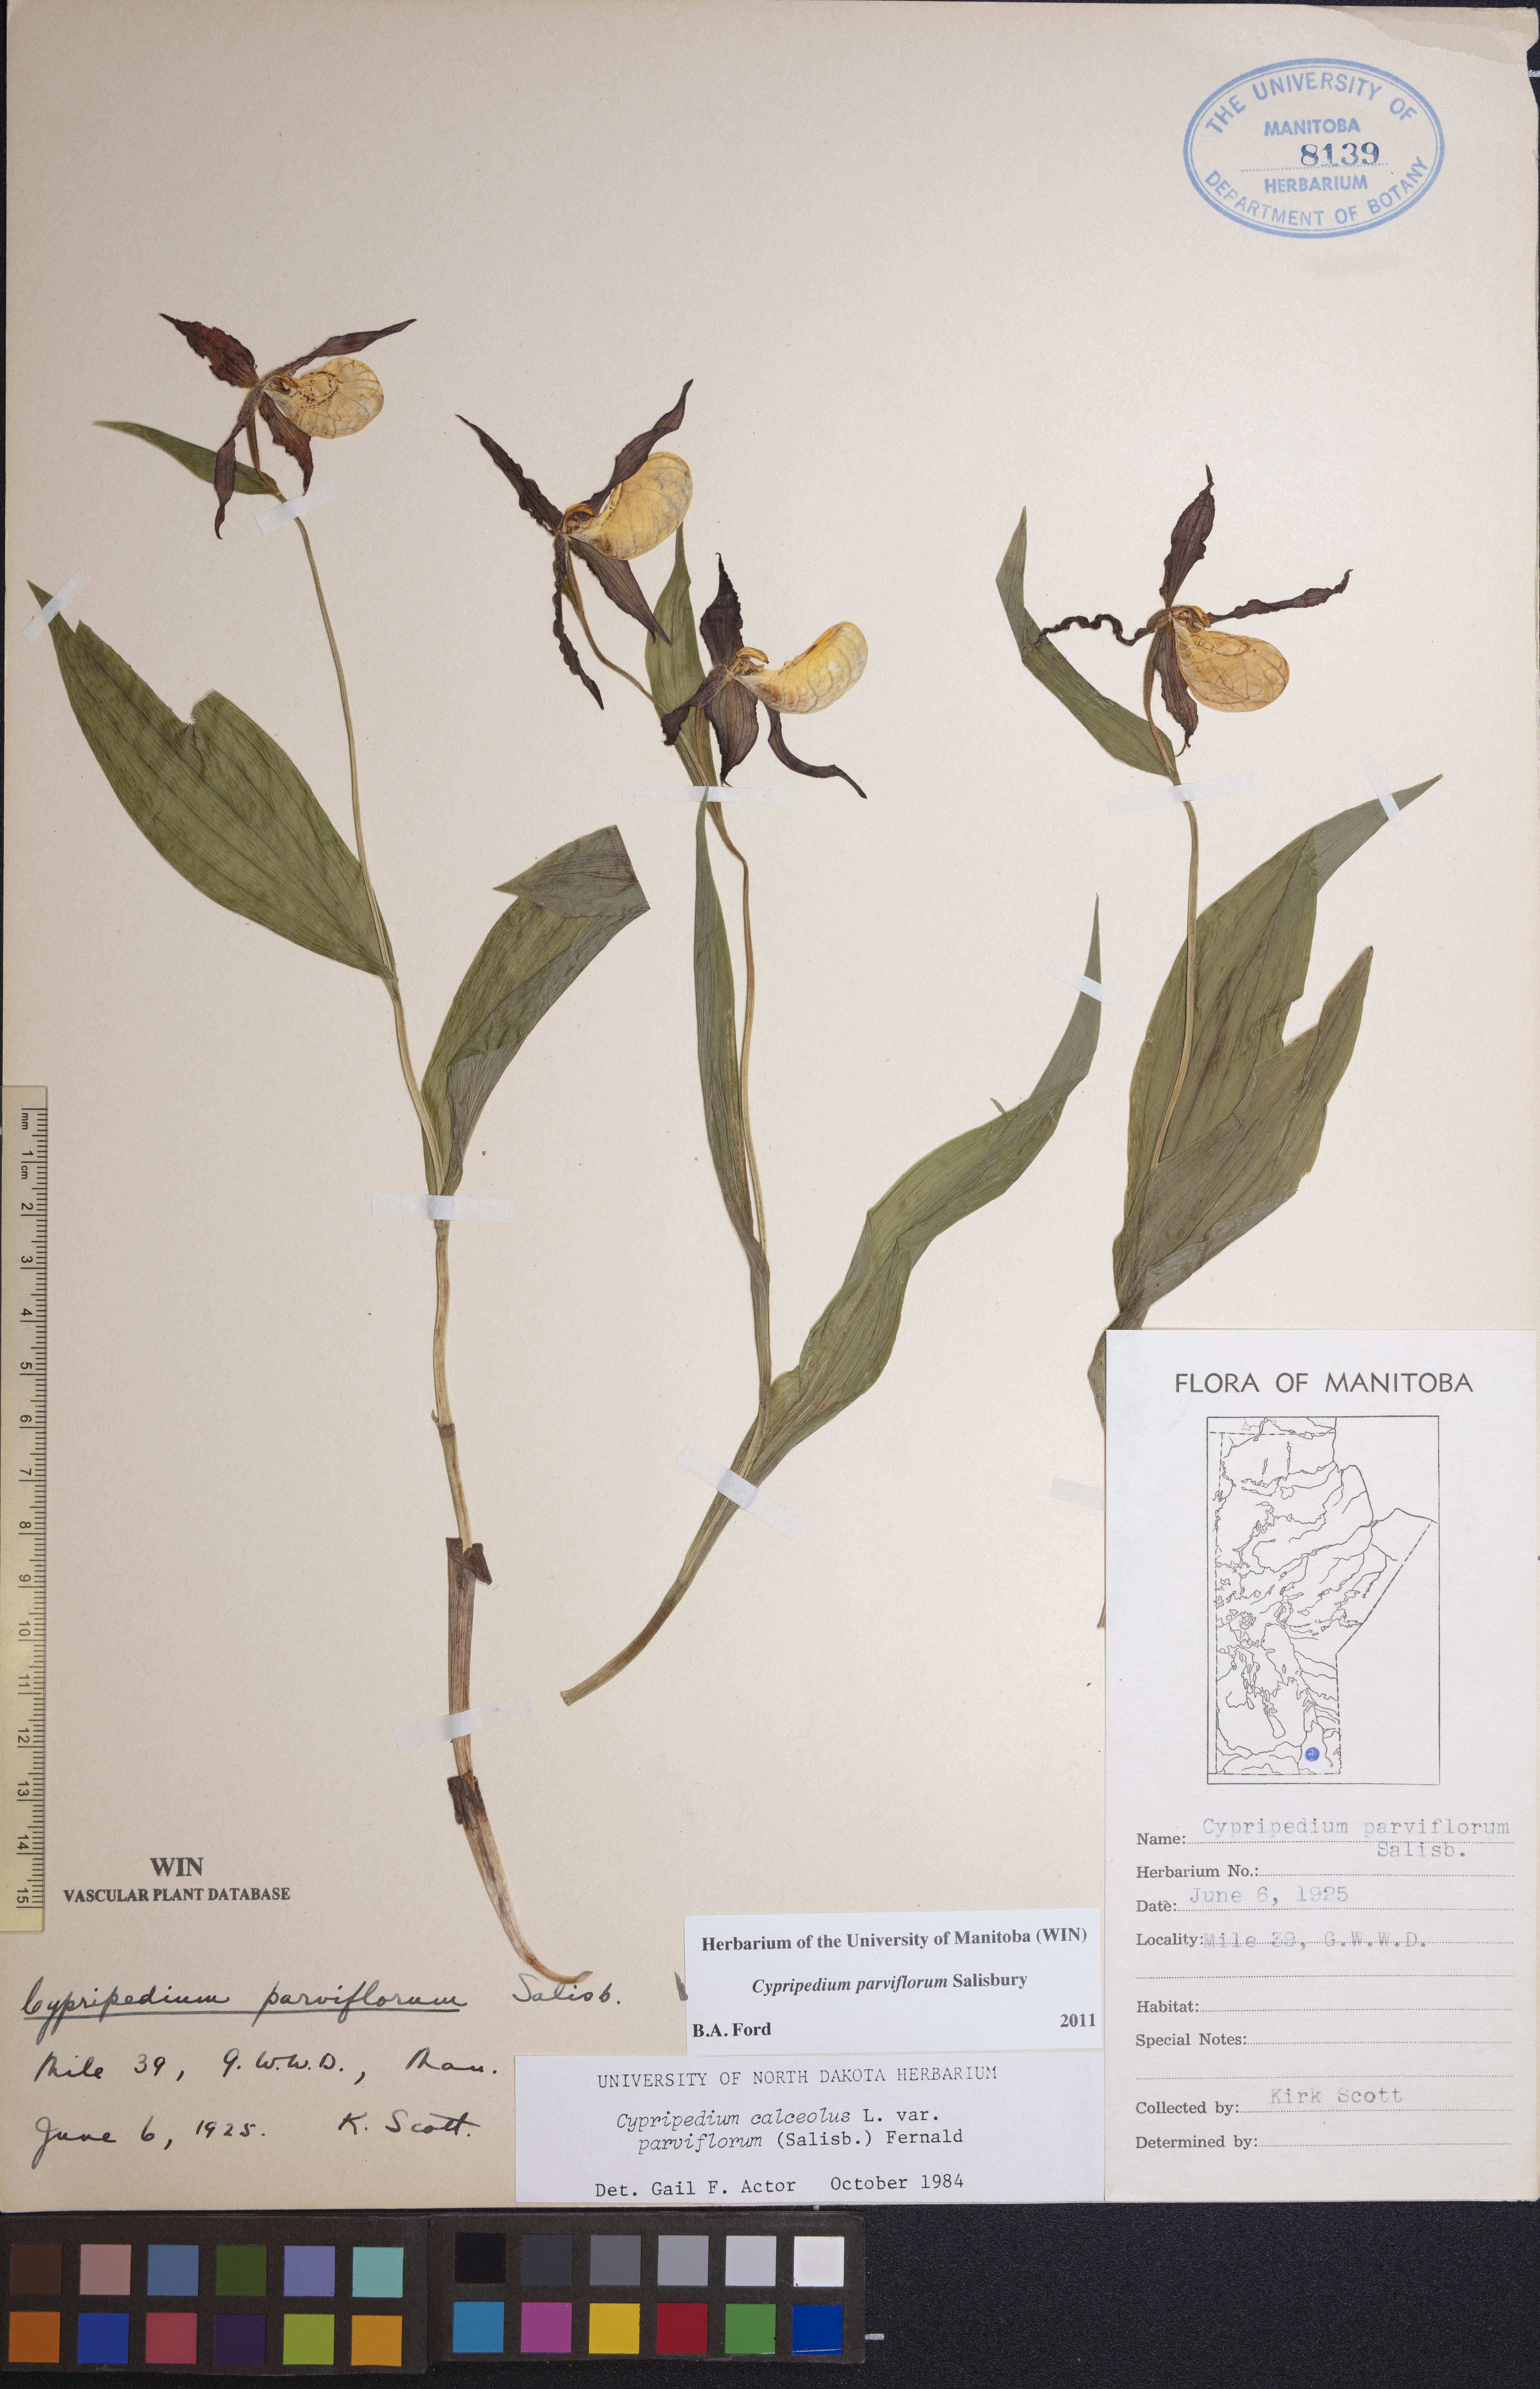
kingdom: Plantae
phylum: Tracheophyta
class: Liliopsida
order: Asparagales
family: Orchidaceae
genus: Cypripedium
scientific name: Cypripedium parviflorum
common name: American yellow lady's-slipper
